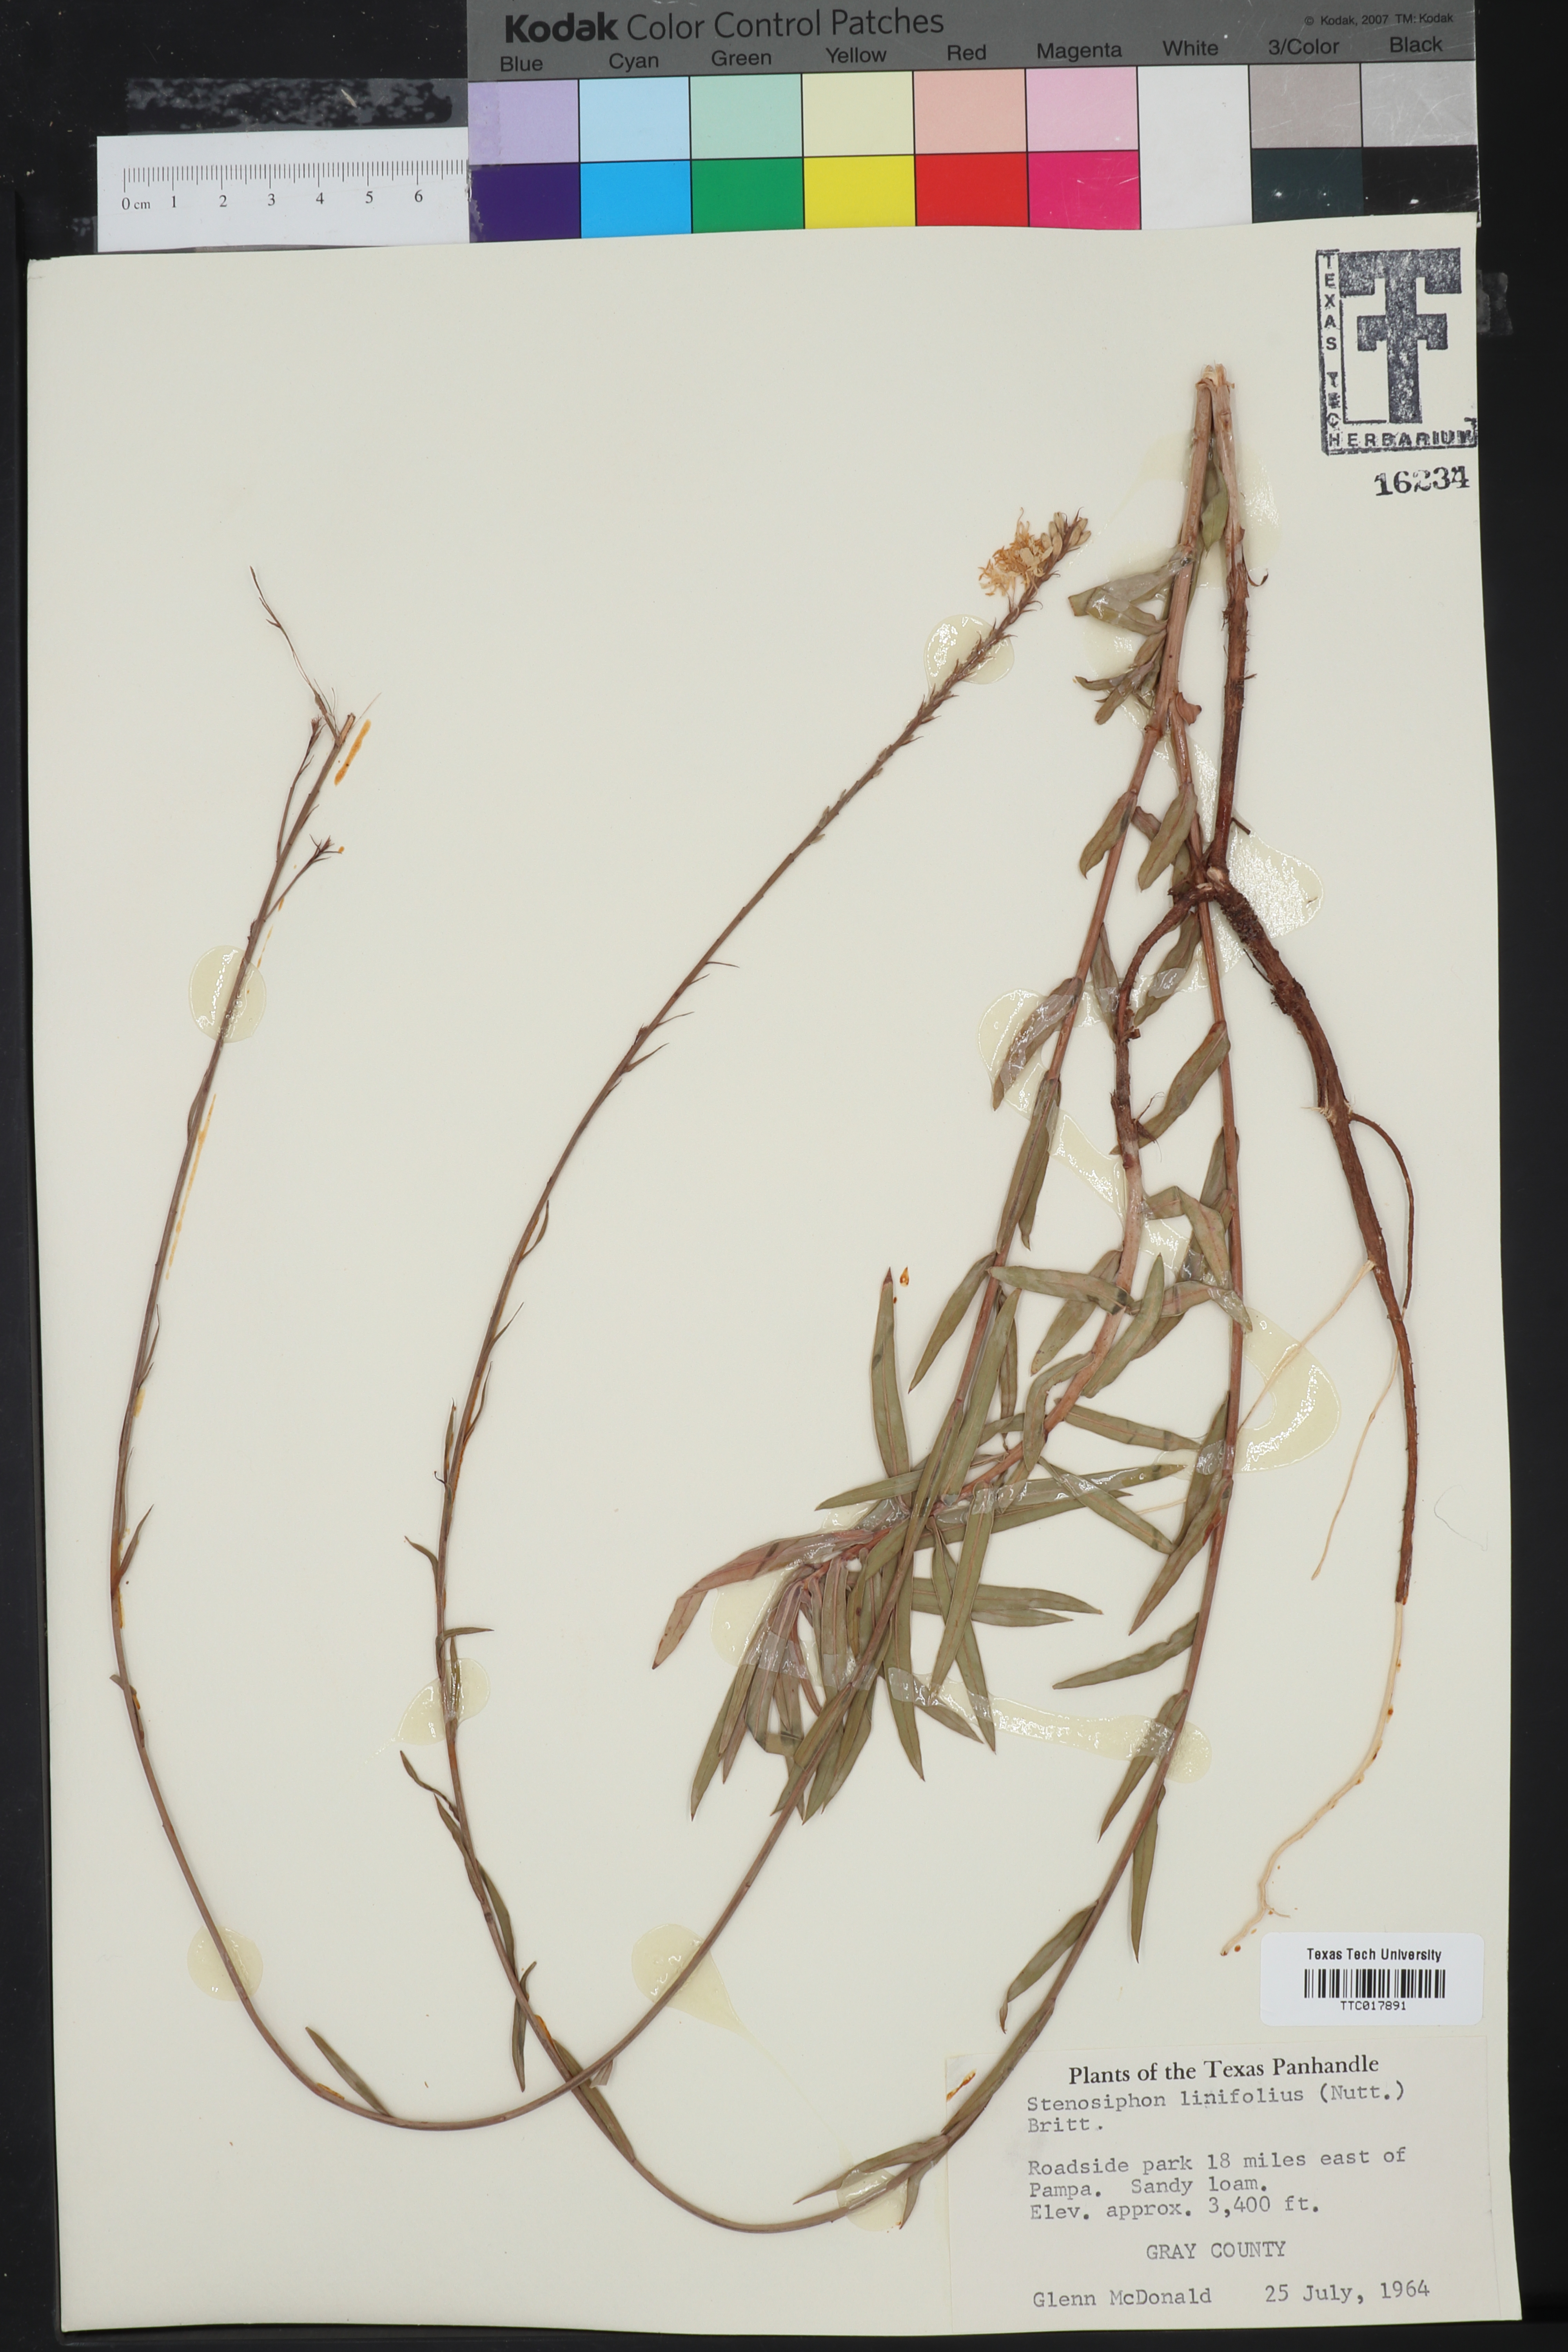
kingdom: Plantae
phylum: Tracheophyta
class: Magnoliopsida
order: Myrtales
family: Onagraceae
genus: Oenothera
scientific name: Oenothera glaucifolia
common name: False gaura
